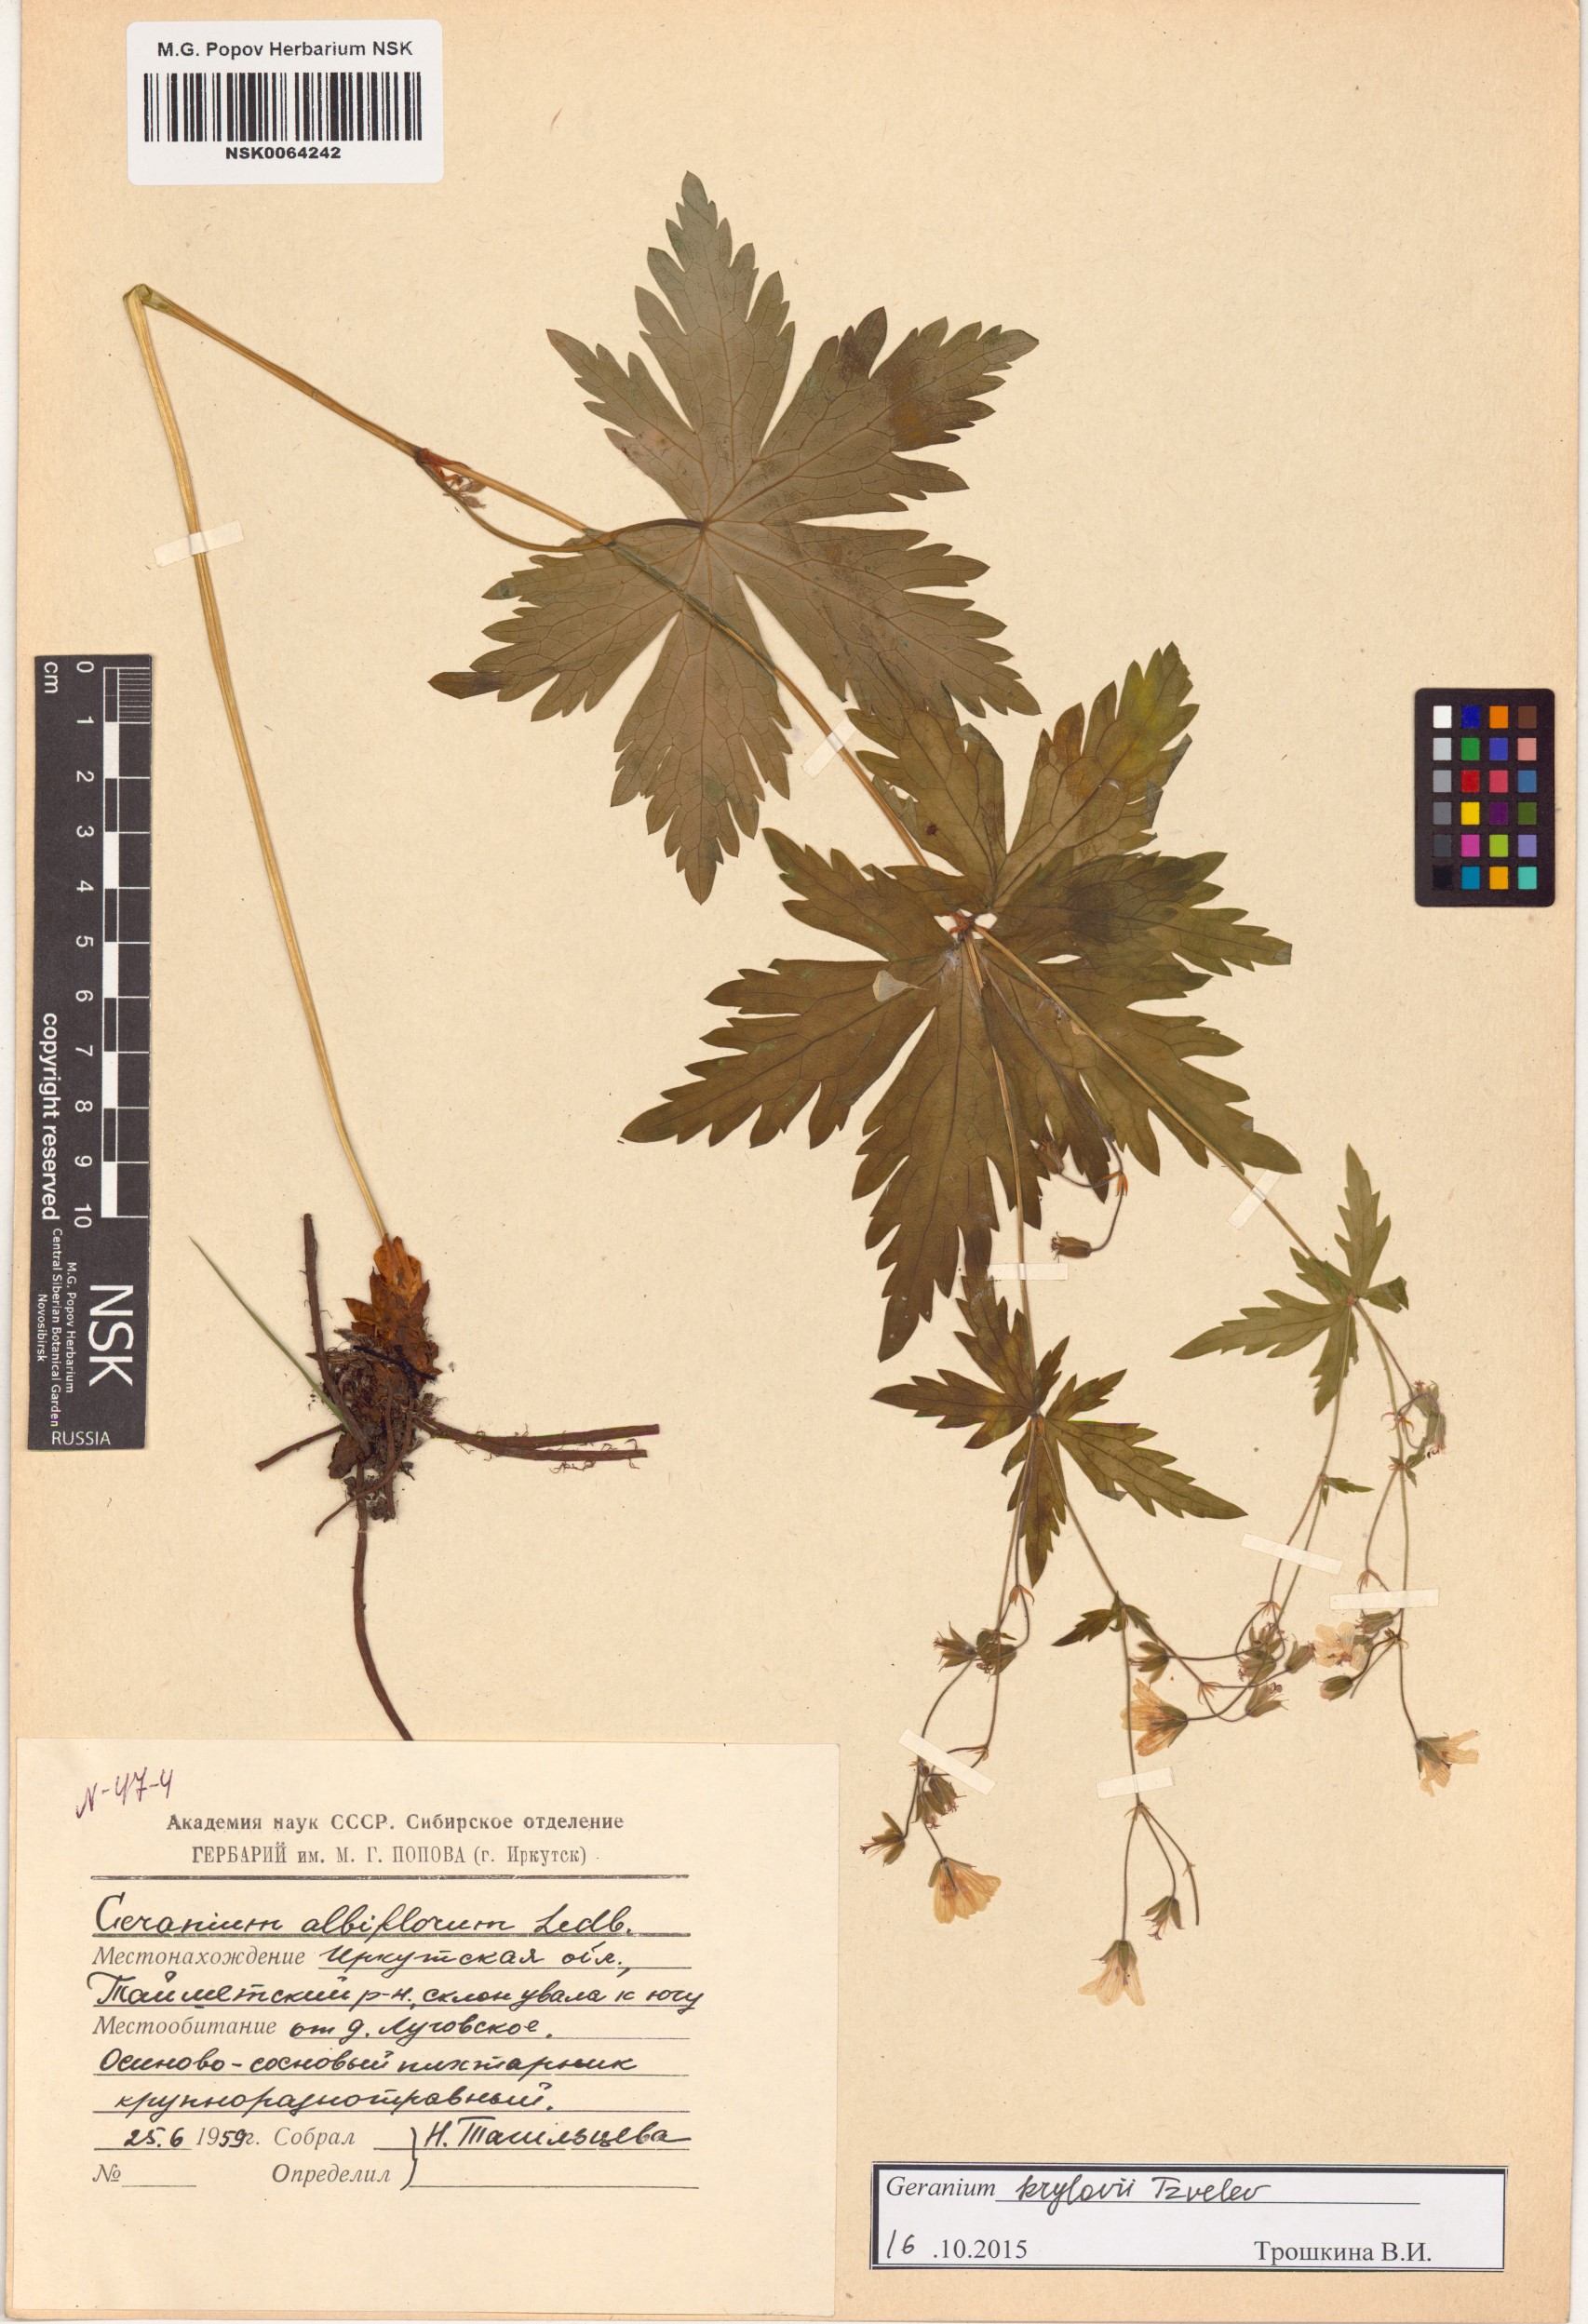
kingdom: Plantae
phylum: Tracheophyta
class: Magnoliopsida
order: Geraniales
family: Geraniaceae
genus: Geranium
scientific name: Geranium sylvaticum
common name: Wood crane's-bill
